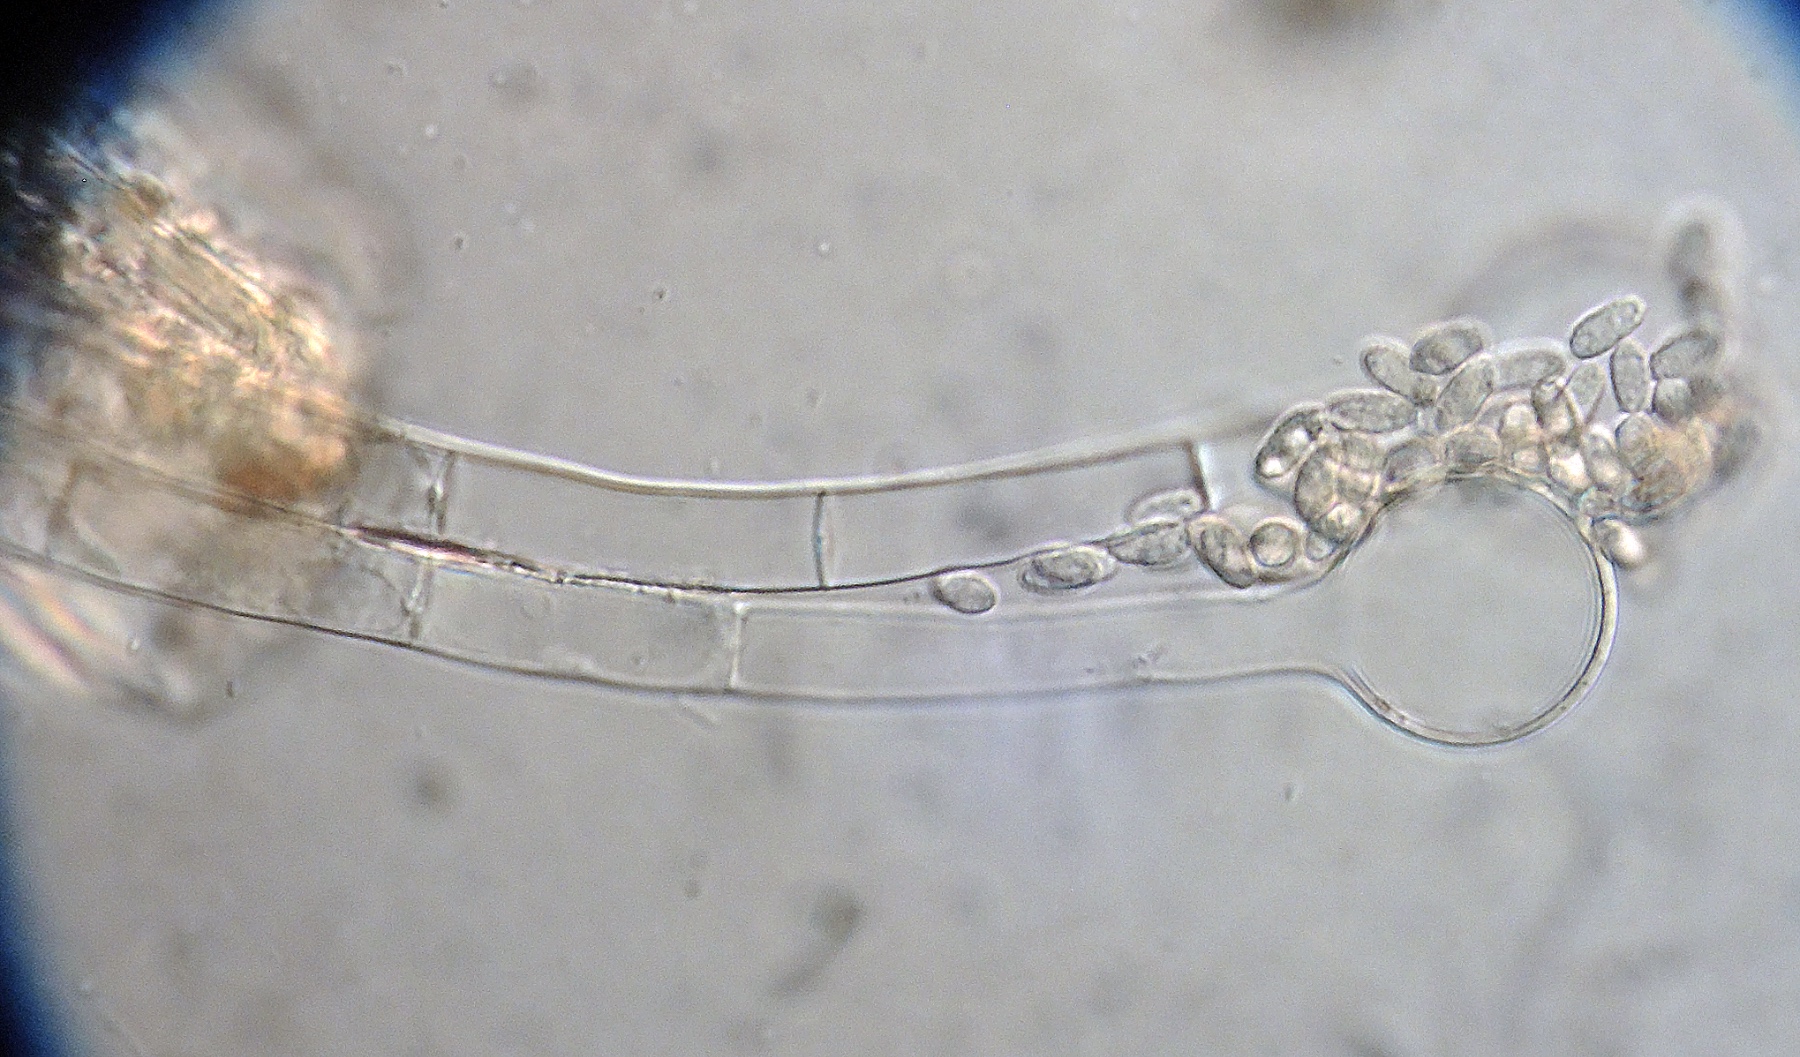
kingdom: Fungi
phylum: Ascomycota
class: Pezizomycetes
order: Pezizales
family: Pezizaceae
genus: Peziza
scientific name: Peziza vesiculosa
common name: Blistered cup
